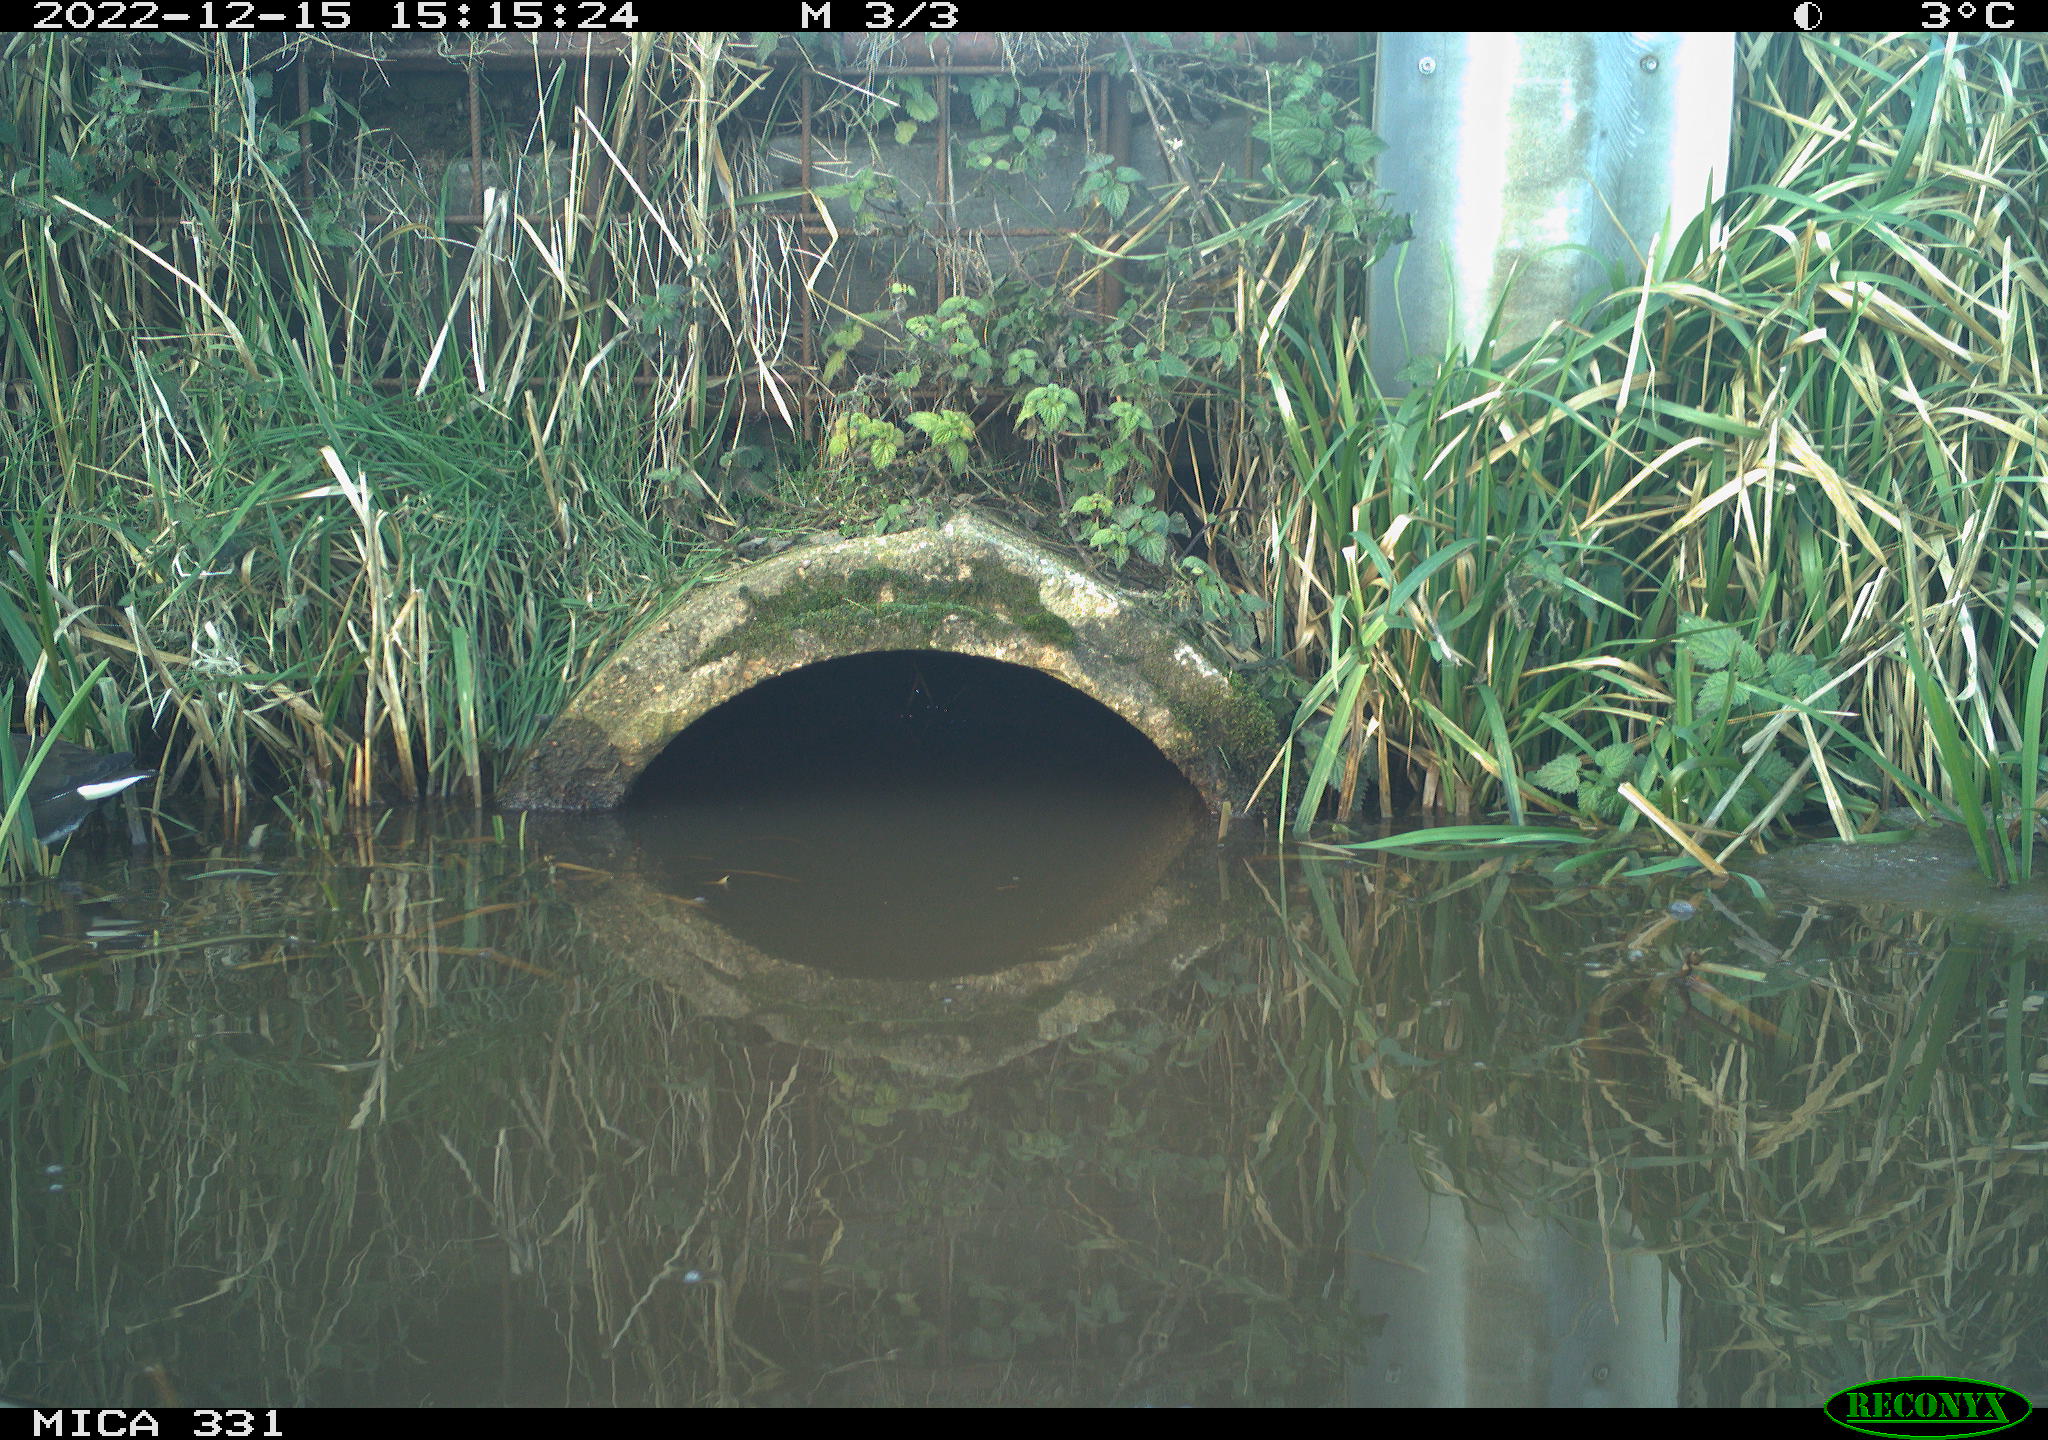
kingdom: Animalia
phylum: Chordata
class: Aves
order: Gruiformes
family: Rallidae
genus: Gallinula
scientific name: Gallinula chloropus
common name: Common moorhen
